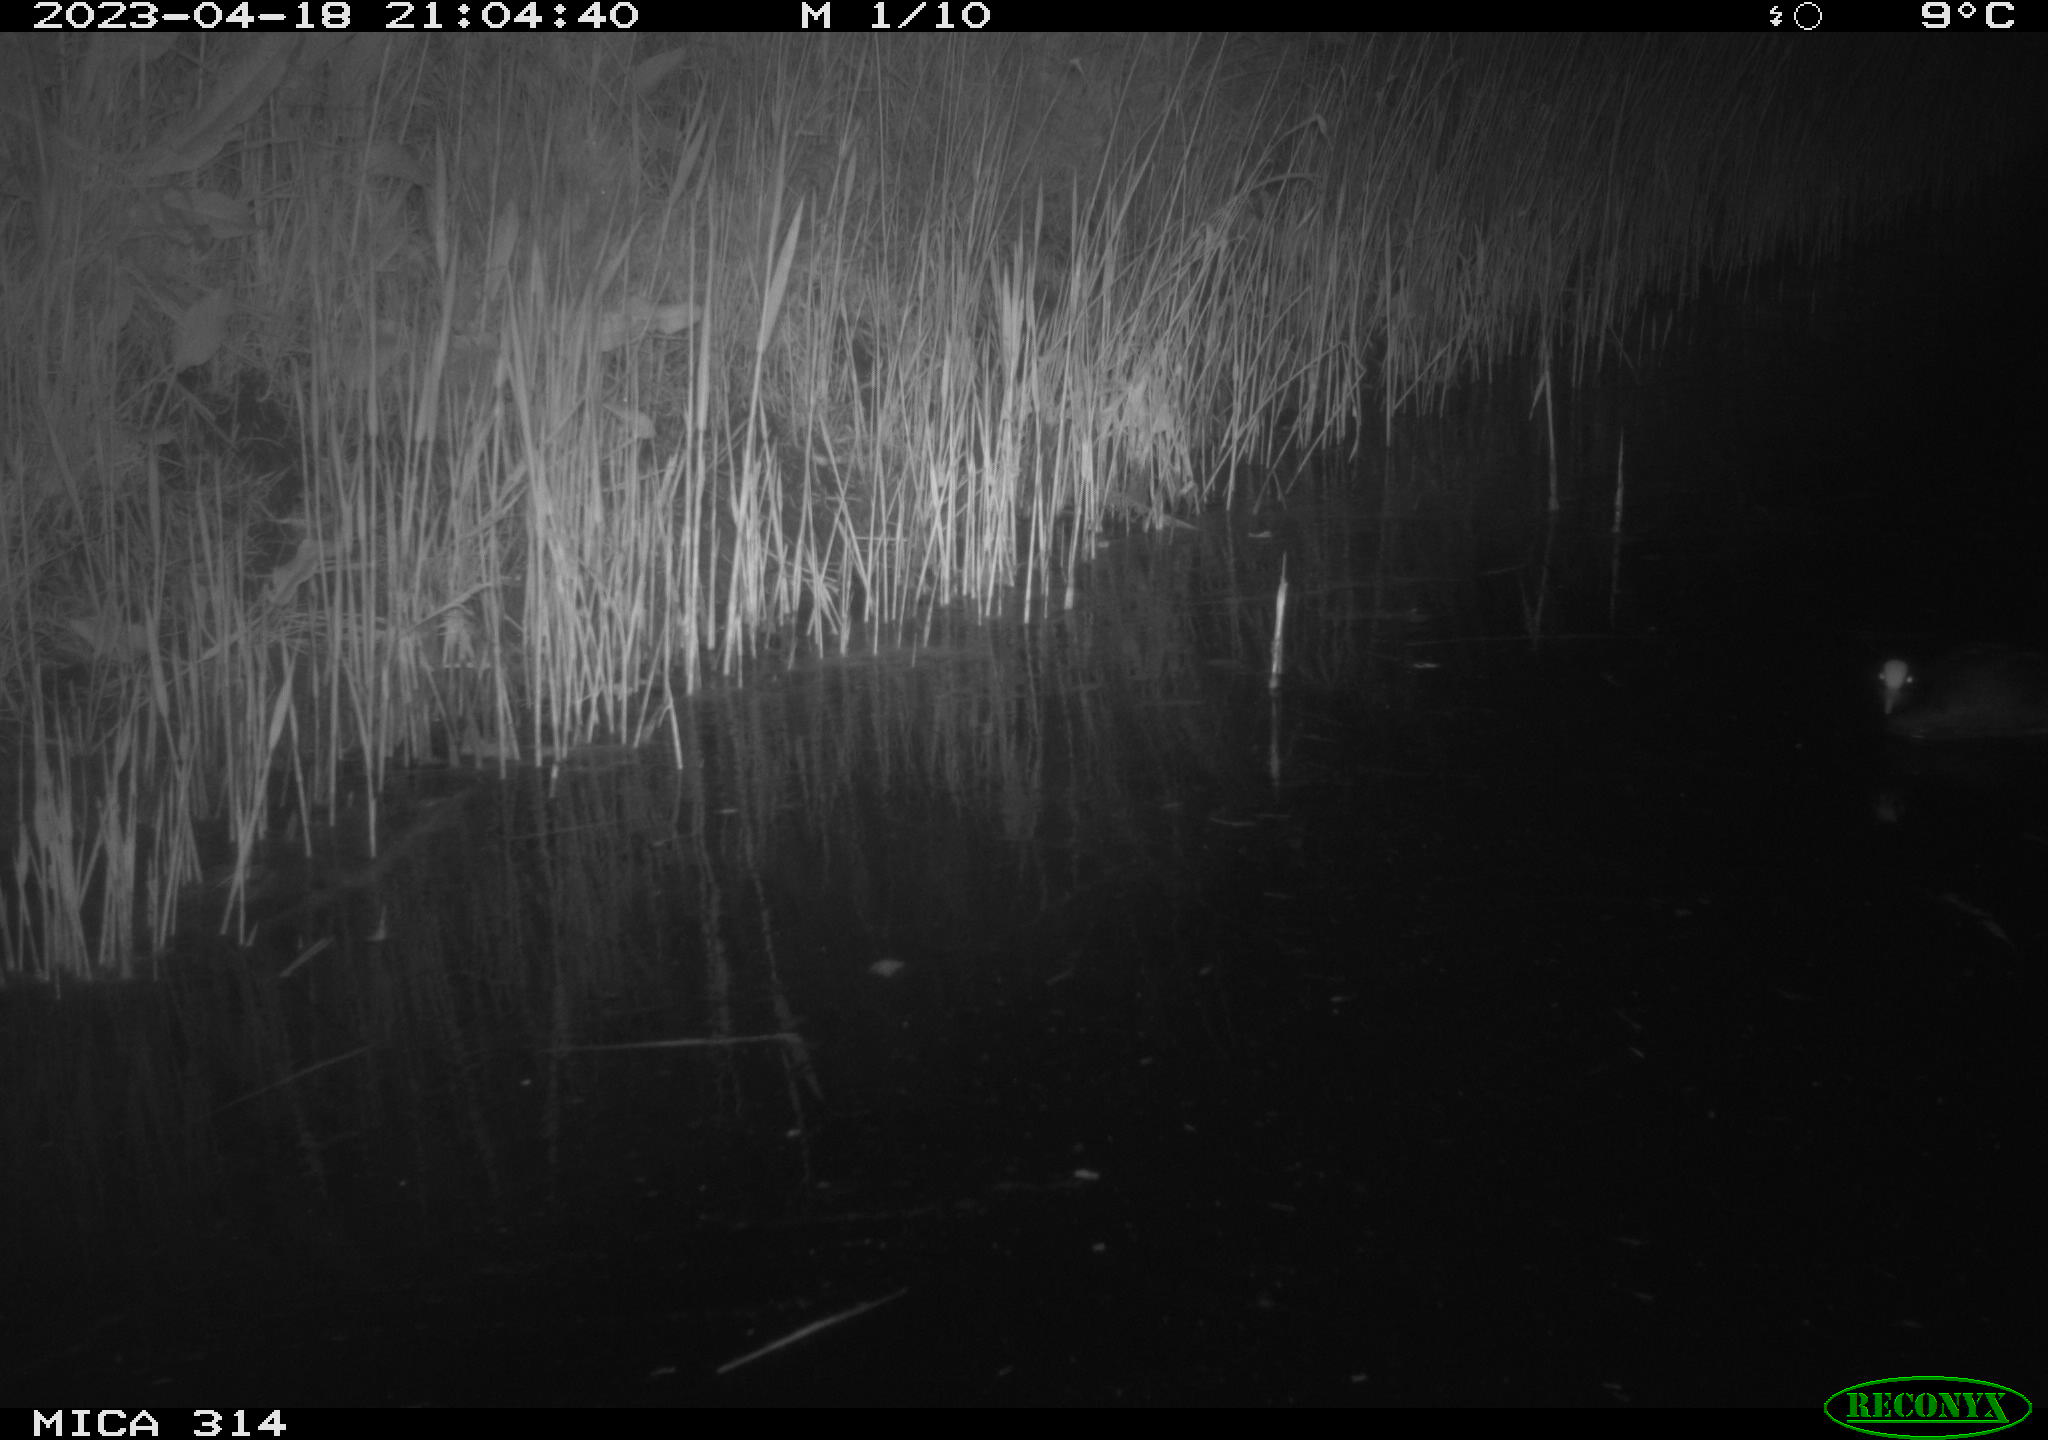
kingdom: Animalia
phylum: Chordata
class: Aves
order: Gruiformes
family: Rallidae
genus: Fulica
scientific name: Fulica atra
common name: Eurasian coot
